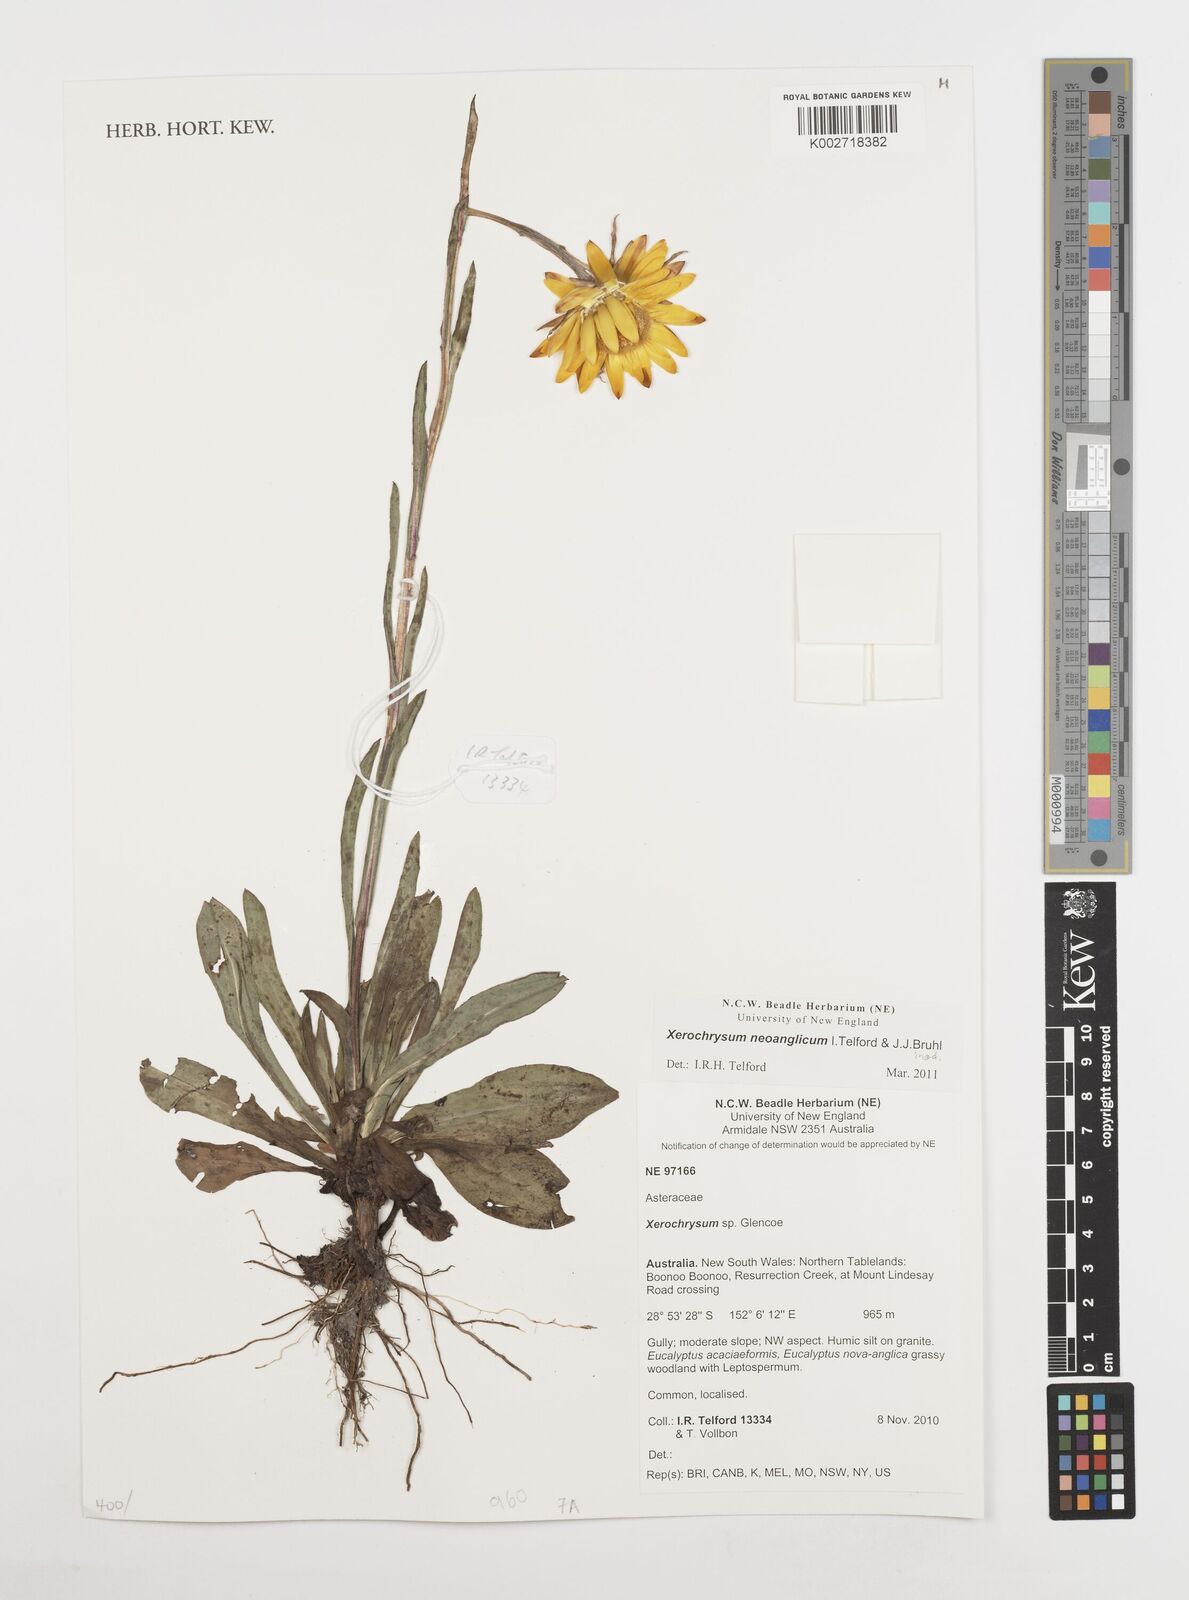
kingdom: Plantae
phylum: Tracheophyta
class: Magnoliopsida
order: Asterales
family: Asteraceae
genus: Xerochrysum
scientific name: Xerochrysum
